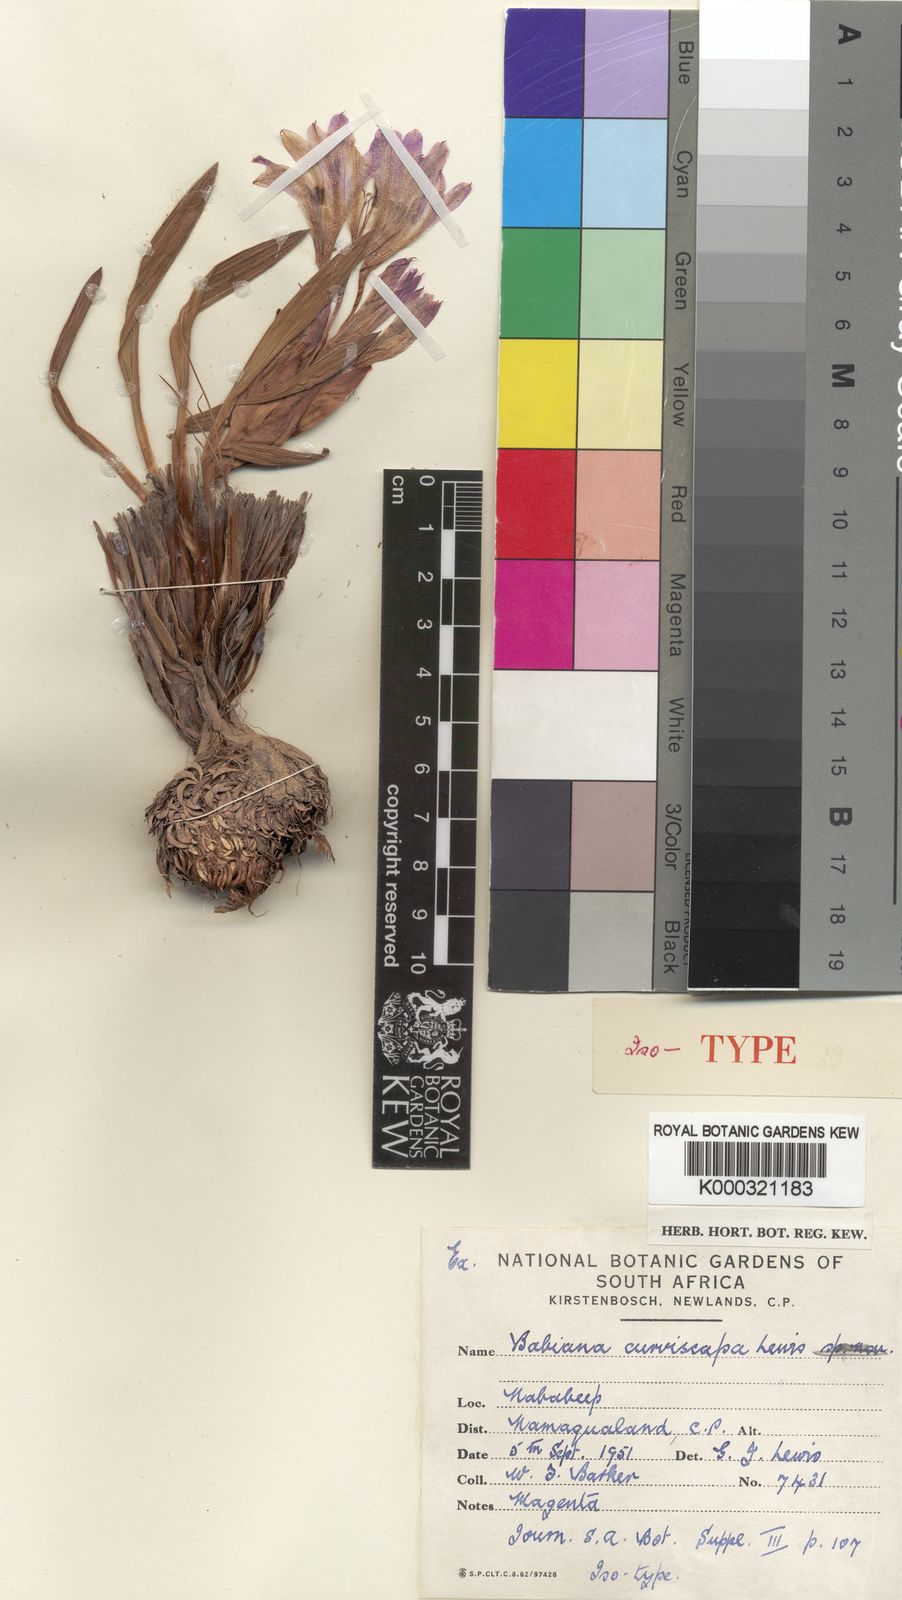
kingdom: Plantae
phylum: Tracheophyta
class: Liliopsida
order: Asparagales
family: Iridaceae
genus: Babiana
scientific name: Babiana curviscapa
